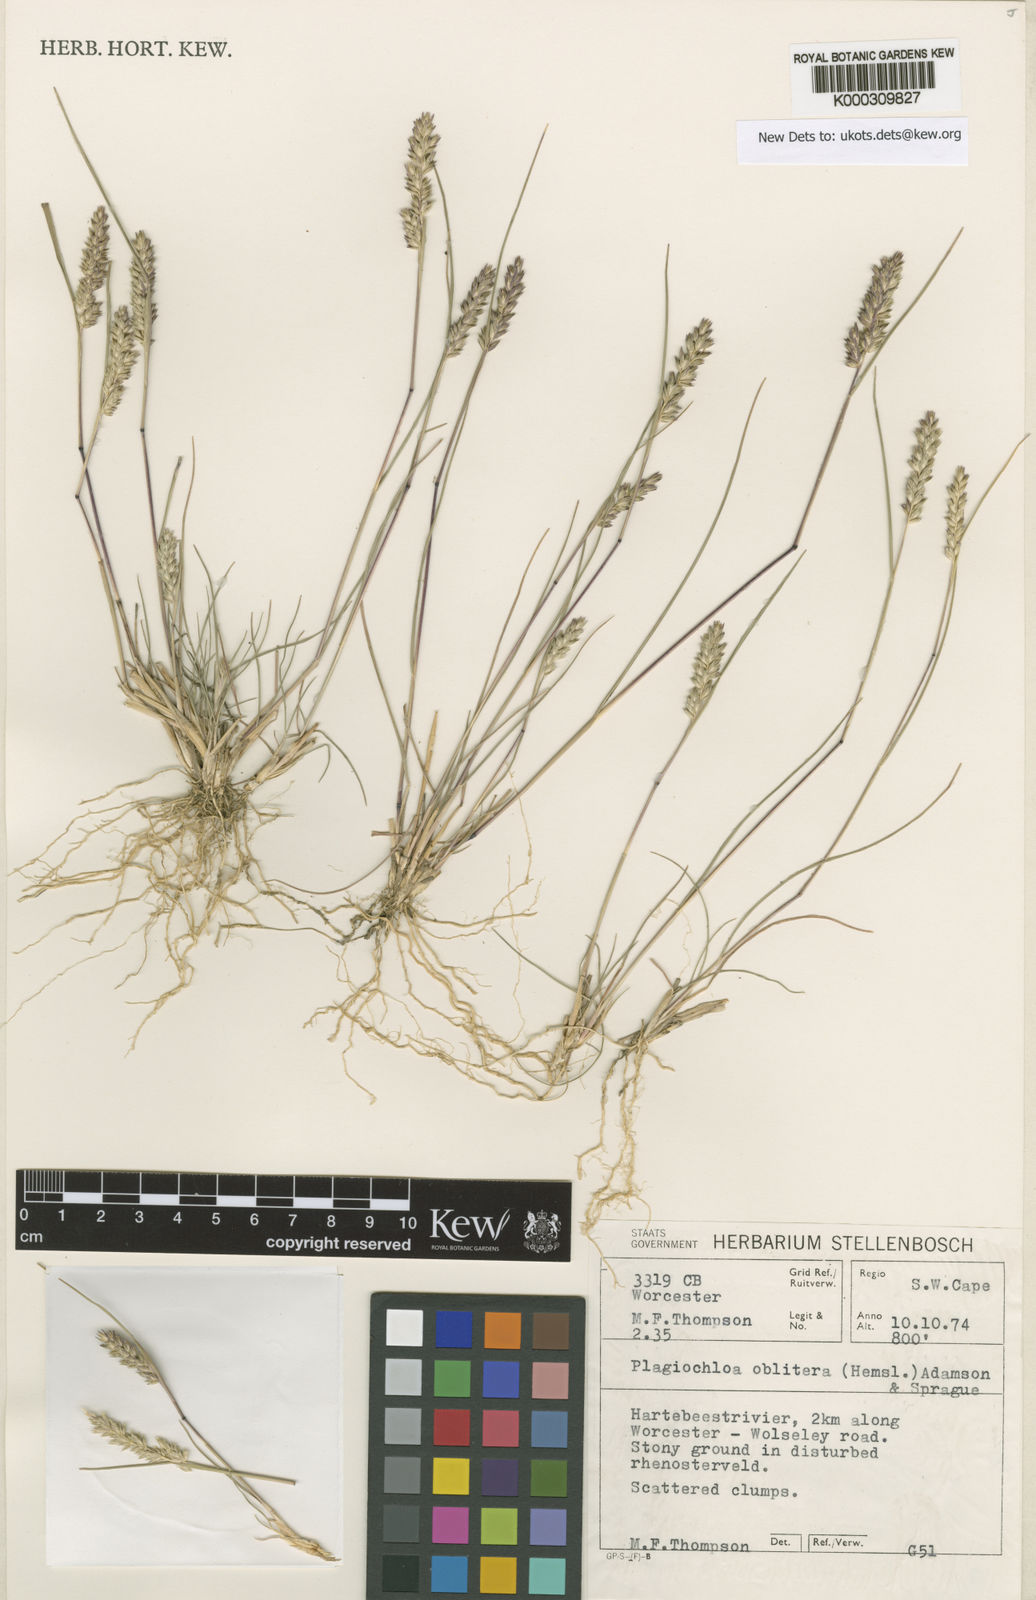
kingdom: Plantae
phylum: Tracheophyta
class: Liliopsida
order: Poales
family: Poaceae
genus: Tribolium
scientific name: Tribolium obliterum
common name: Capetown grass
